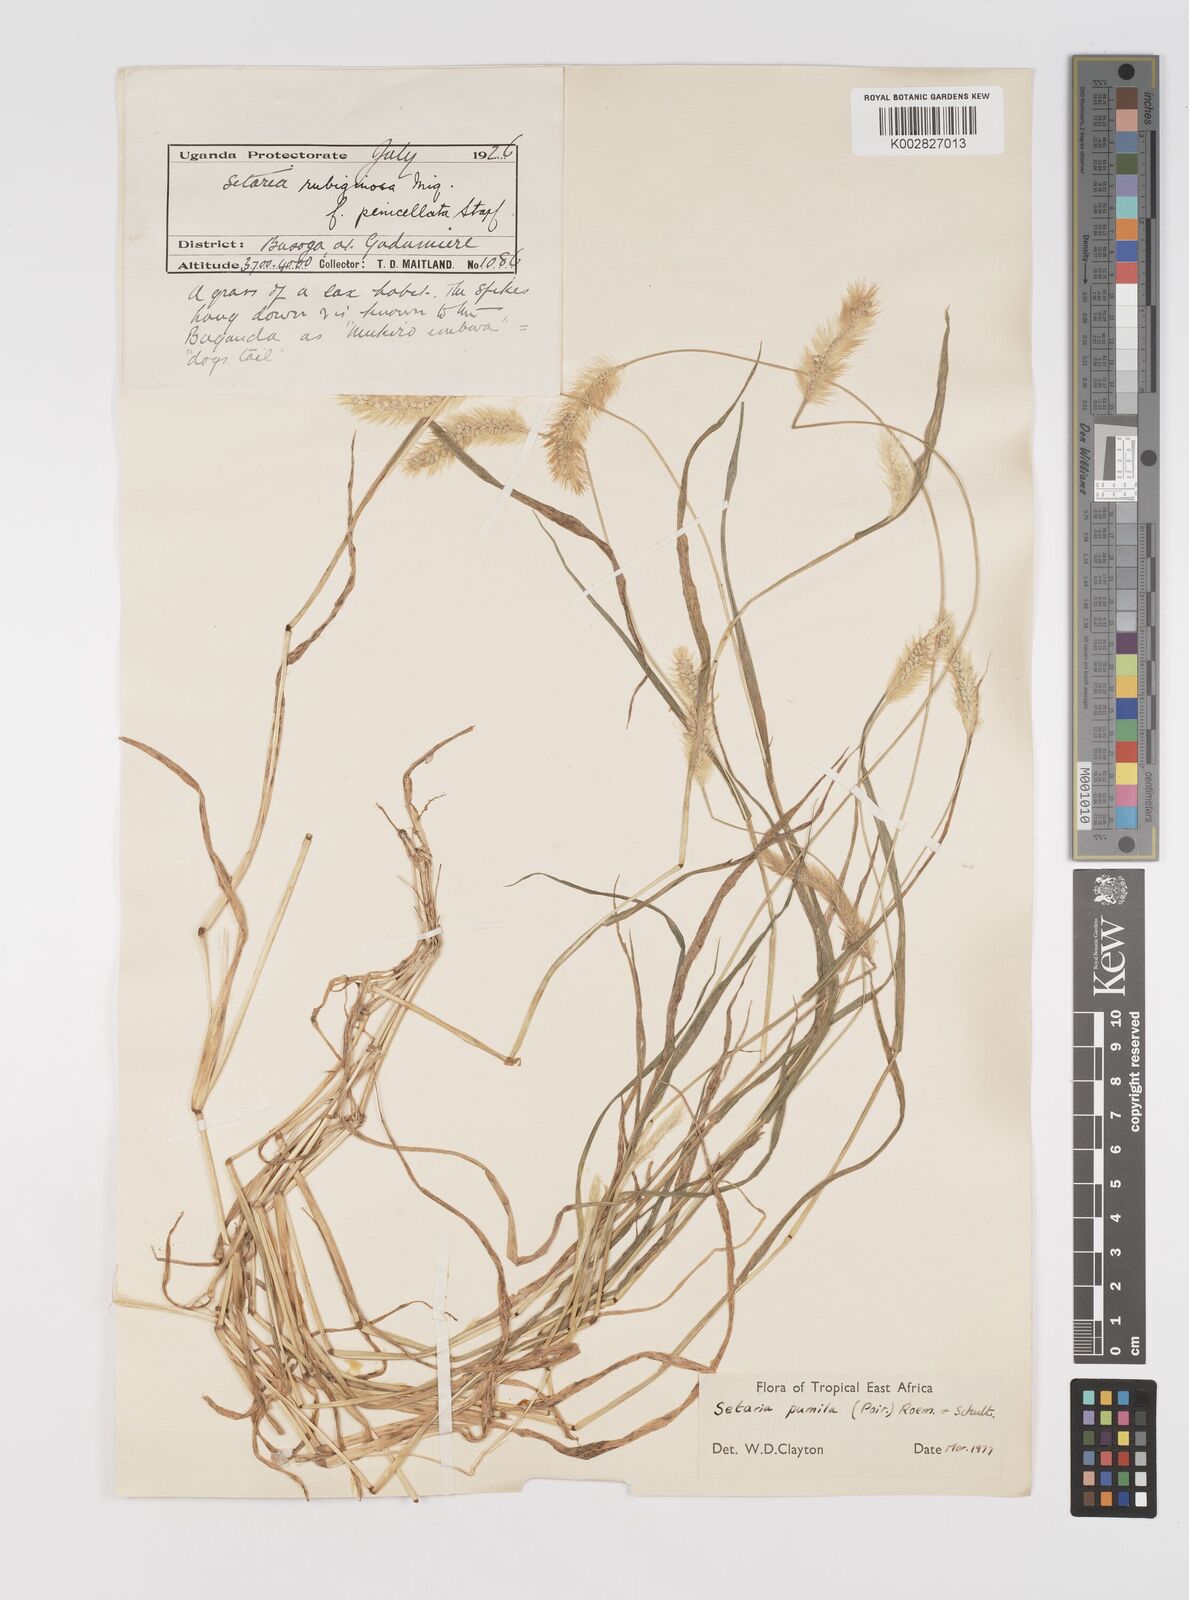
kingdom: Plantae
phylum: Tracheophyta
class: Liliopsida
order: Poales
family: Poaceae
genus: Setaria
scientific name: Setaria pumila
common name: Yellow bristle-grass
